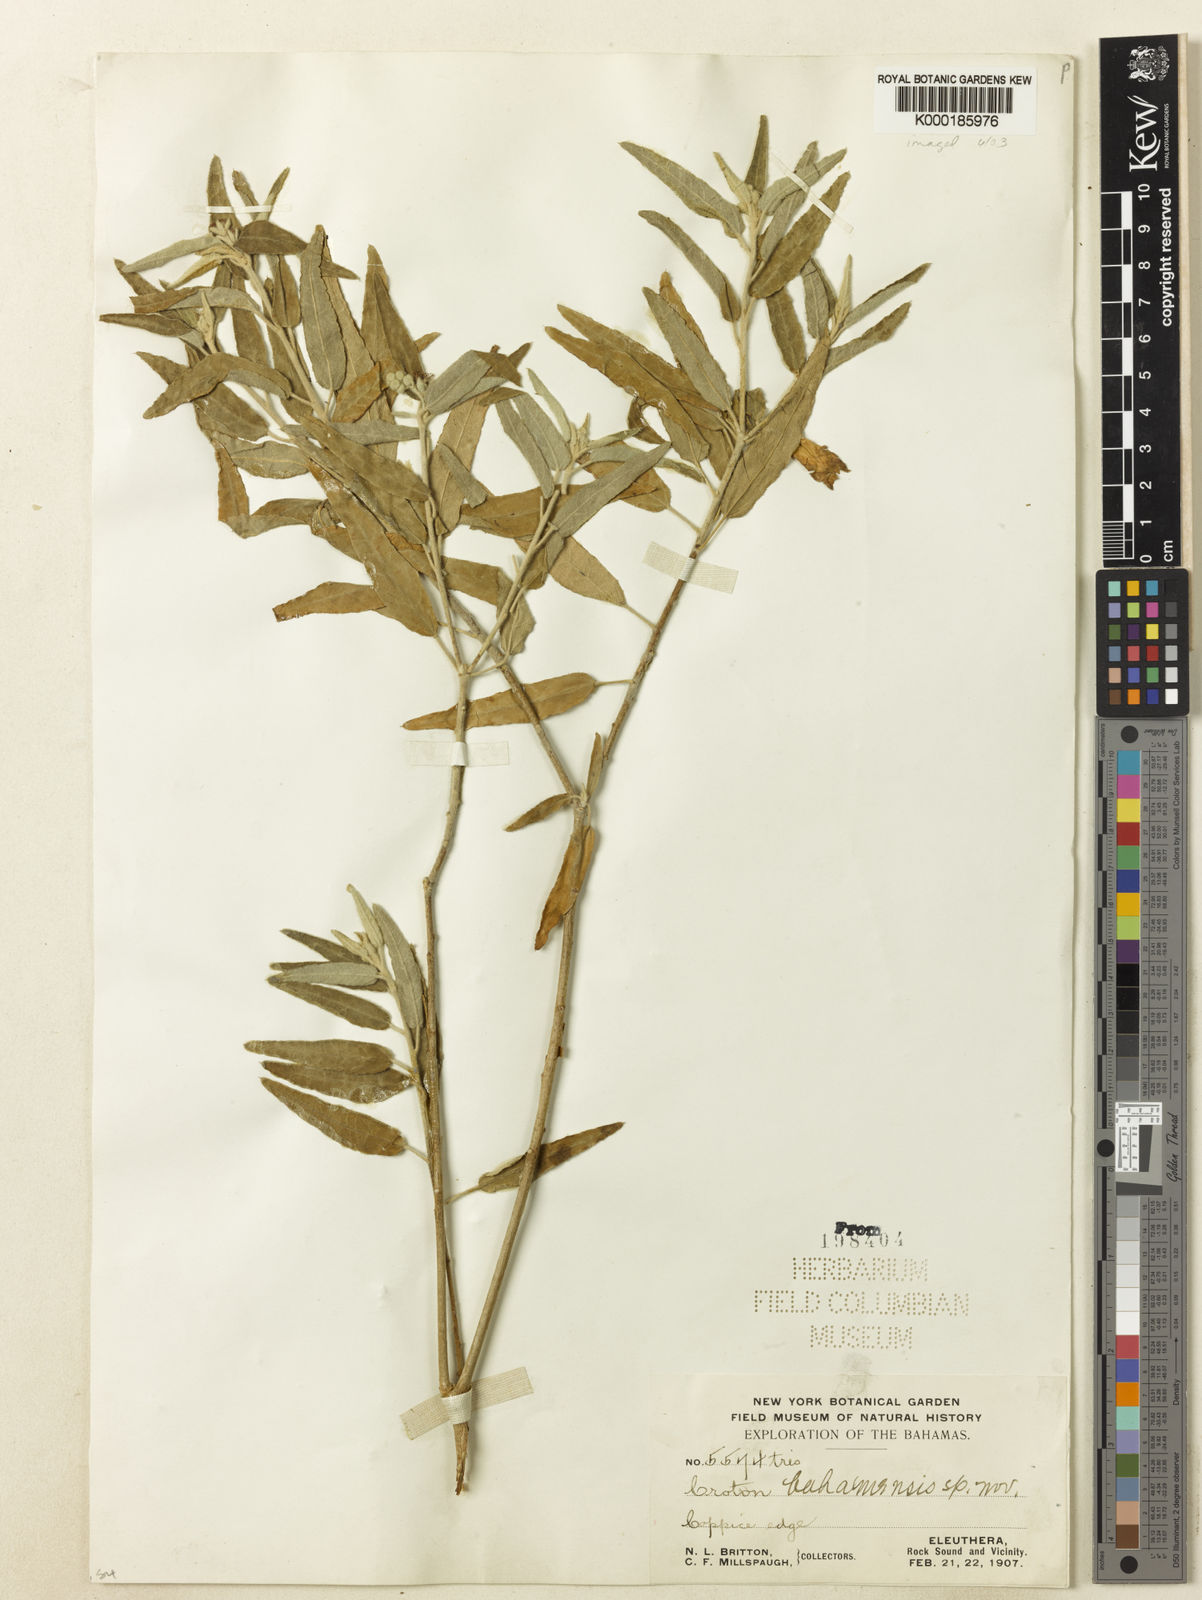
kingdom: Plantae
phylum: Tracheophyta
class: Magnoliopsida
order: Malpighiales
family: Euphorbiaceae
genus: Croton
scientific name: Croton brittonii
